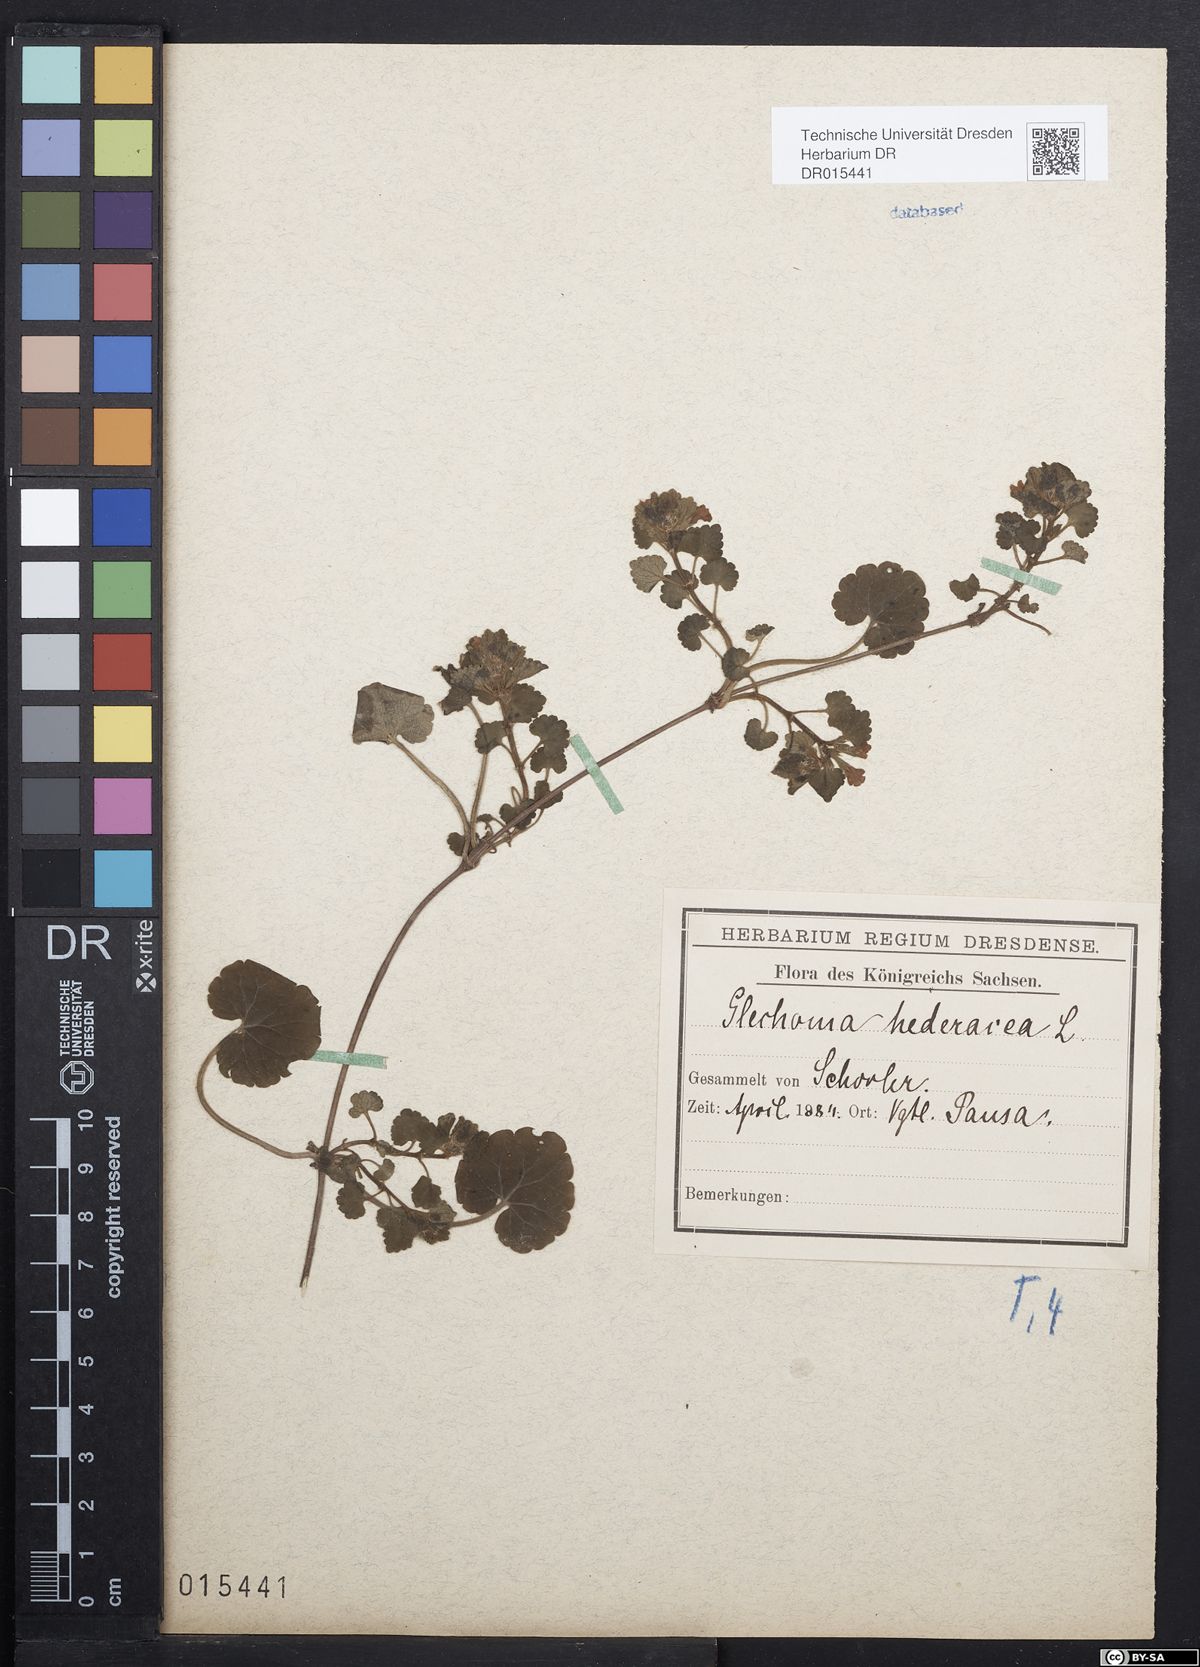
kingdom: Plantae
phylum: Tracheophyta
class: Magnoliopsida
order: Lamiales
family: Lamiaceae
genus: Glechoma
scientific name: Glechoma hederacea
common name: Ground ivy
